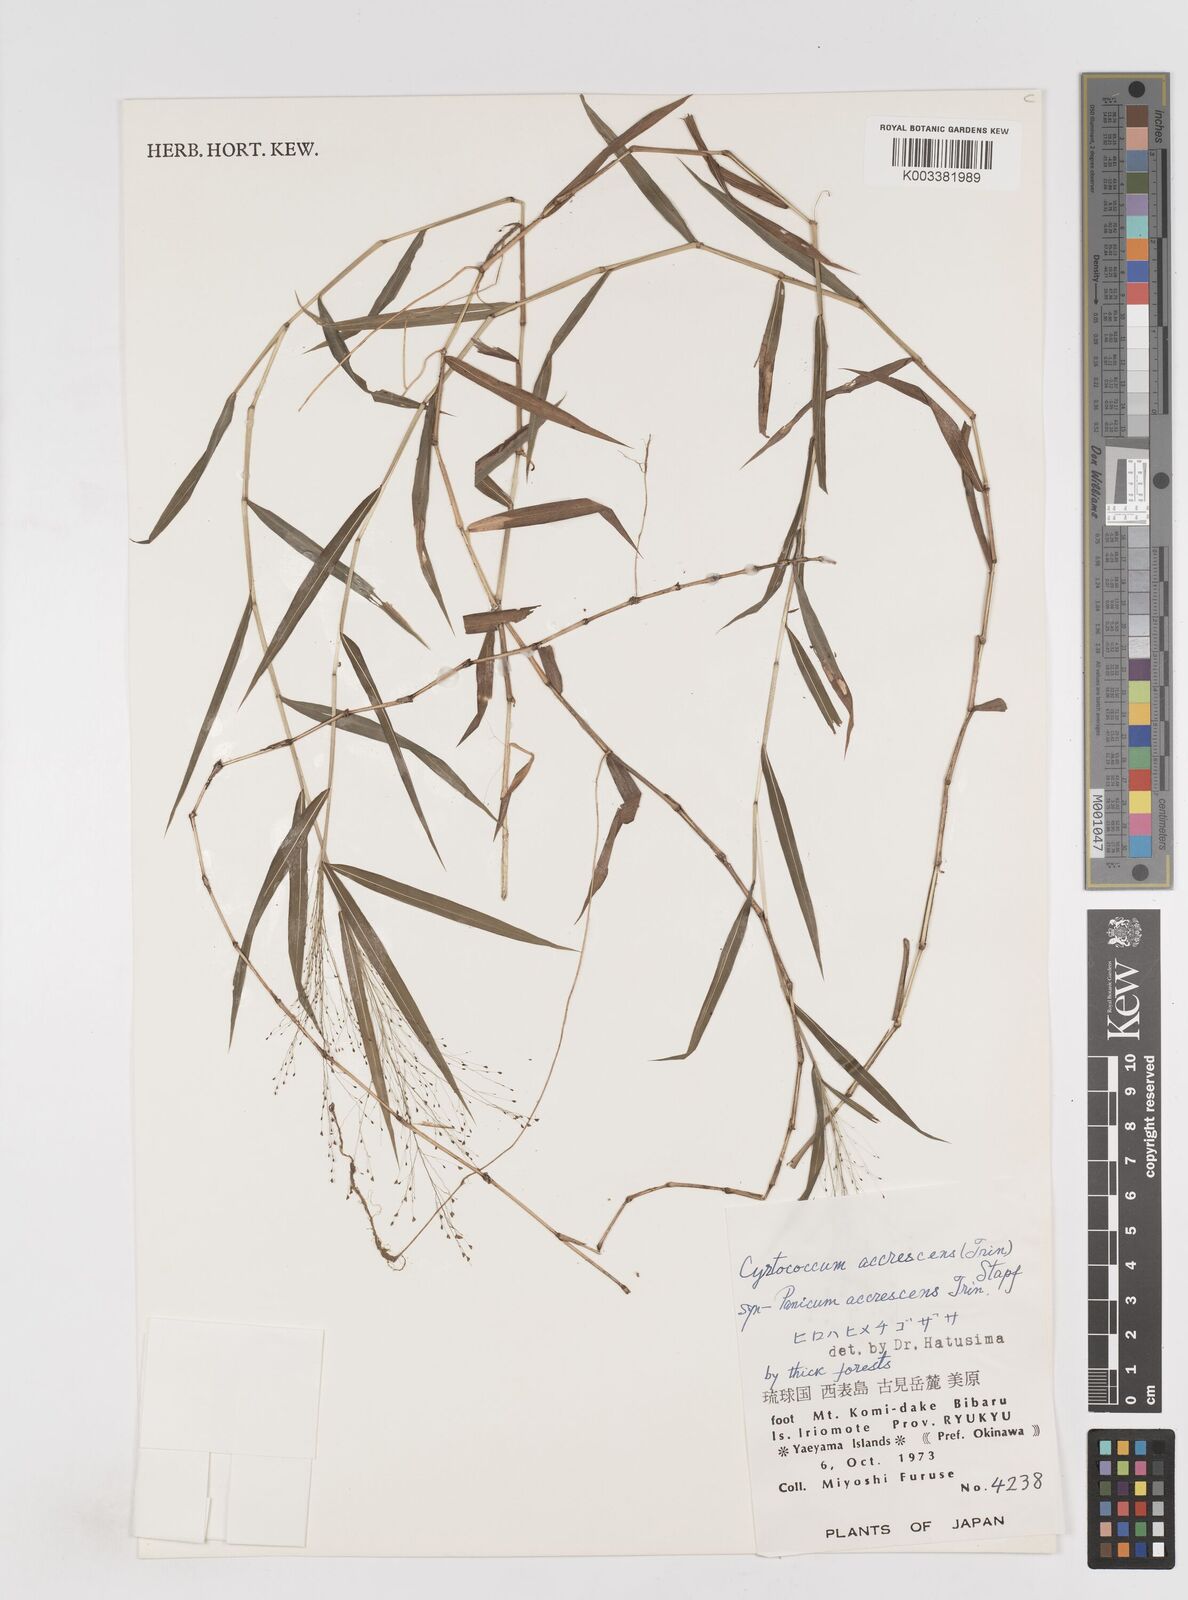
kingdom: Plantae
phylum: Tracheophyta
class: Liliopsida
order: Poales
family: Poaceae
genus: Cyrtococcum
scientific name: Cyrtococcum patens
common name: Broad-leaved bowgrass
